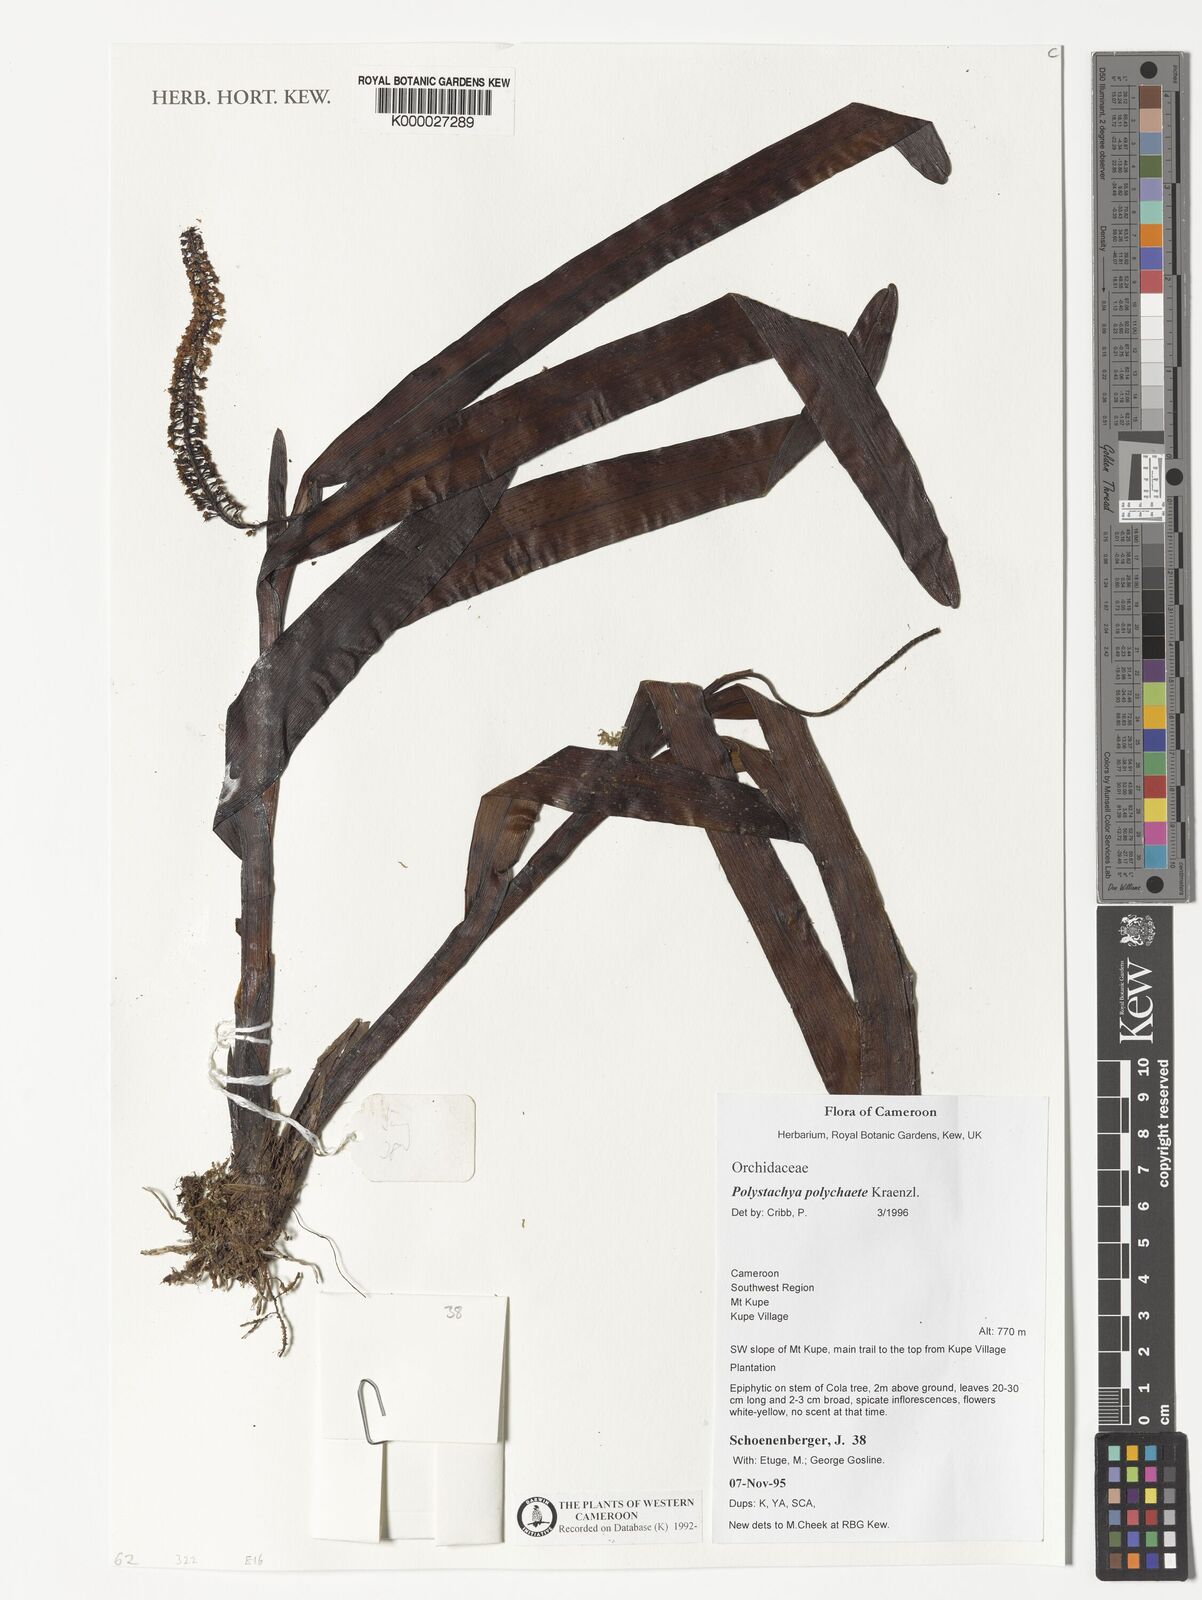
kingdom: Plantae
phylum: Tracheophyta
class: Liliopsida
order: Asparagales
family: Orchidaceae
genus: Polystachya
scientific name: Polystachya polychaete
